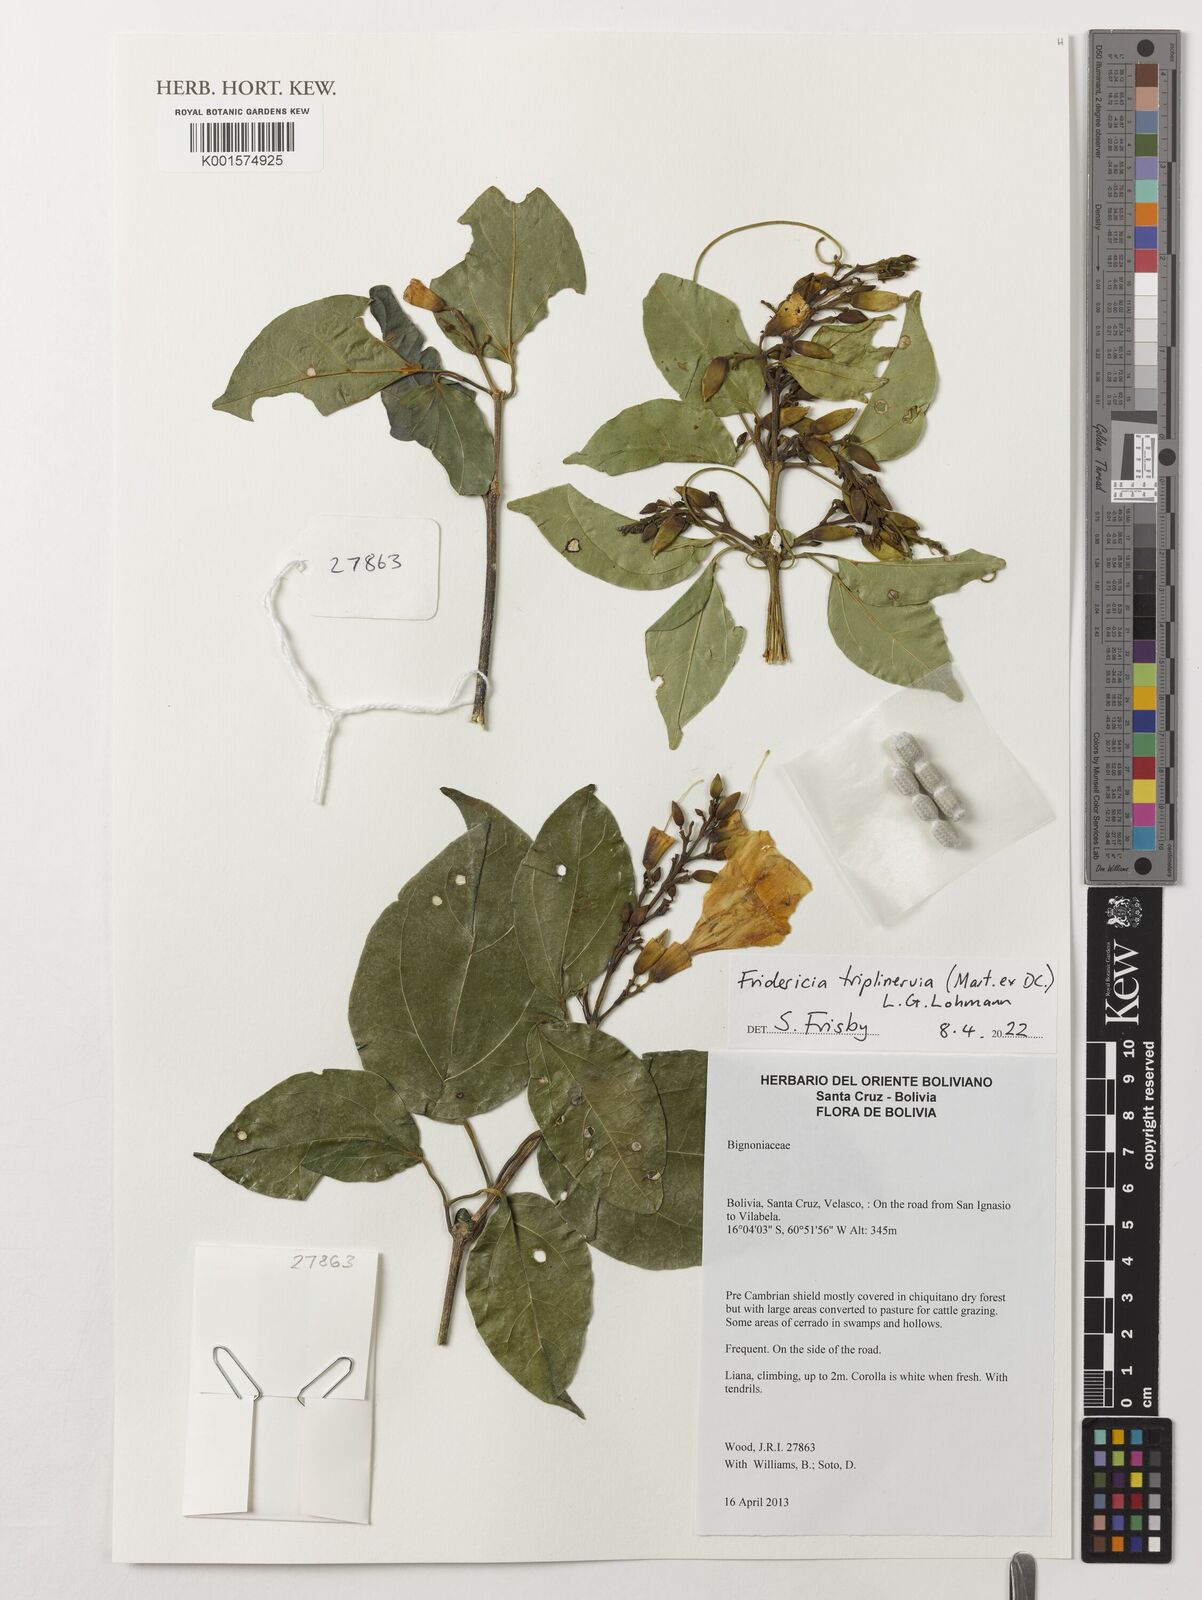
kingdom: Plantae
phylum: Tracheophyta
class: Magnoliopsida
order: Lamiales
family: Bignoniaceae
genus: Fridericia
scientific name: Fridericia triplinervia
